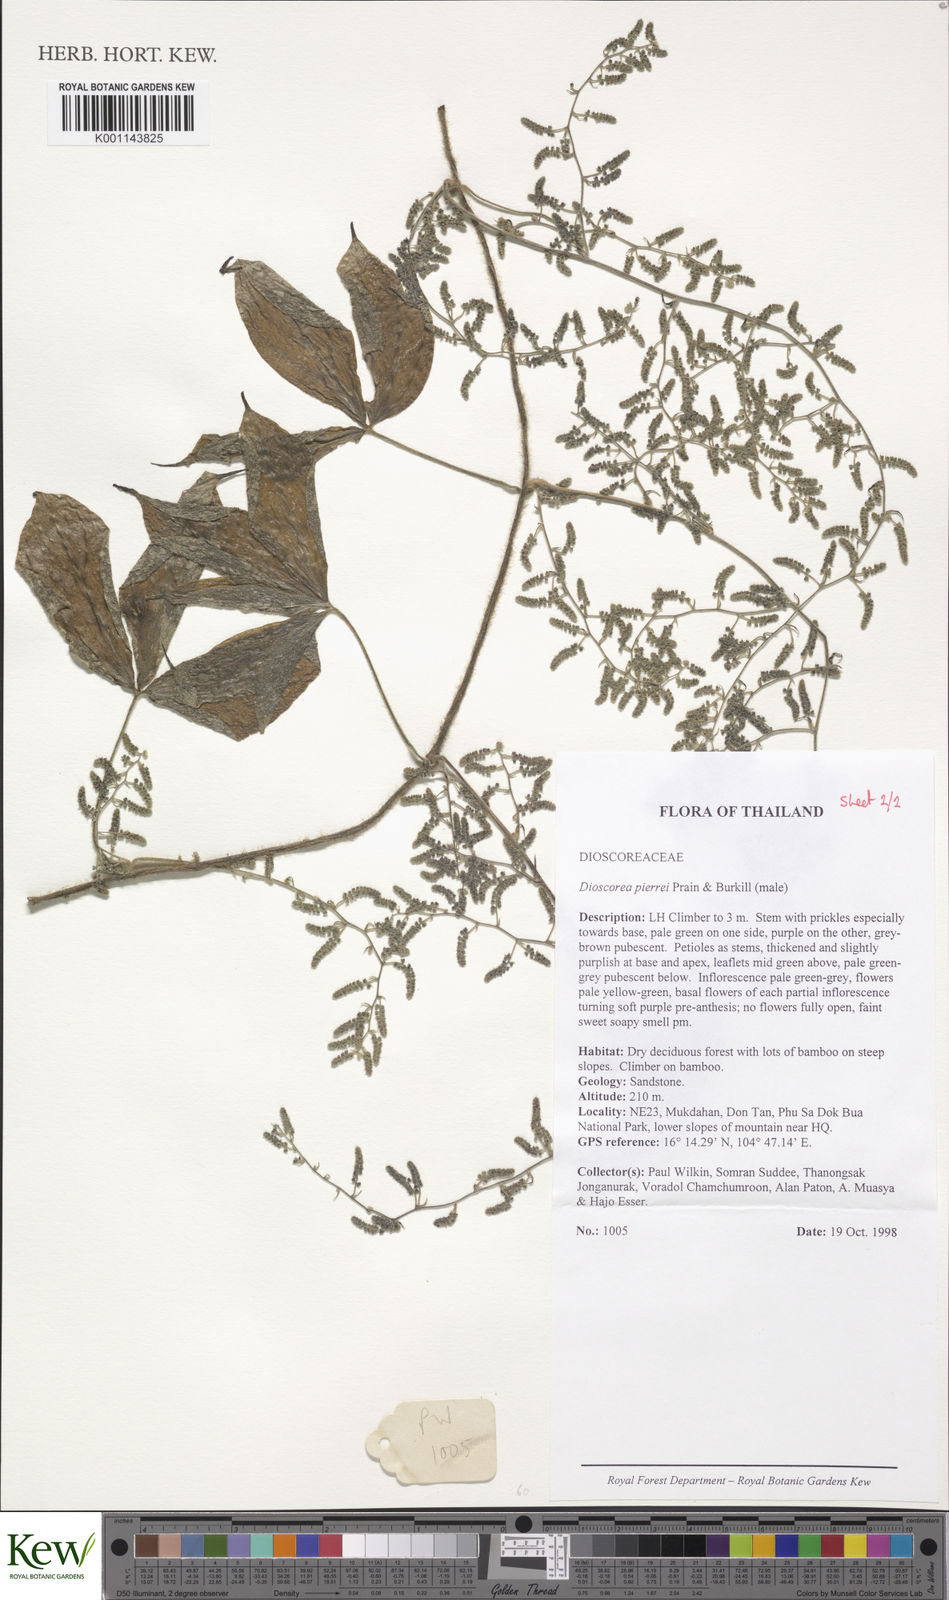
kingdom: Plantae
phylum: Tracheophyta
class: Liliopsida
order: Dioscoreales
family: Dioscoreaceae
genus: Dioscorea
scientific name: Dioscorea pierrei
